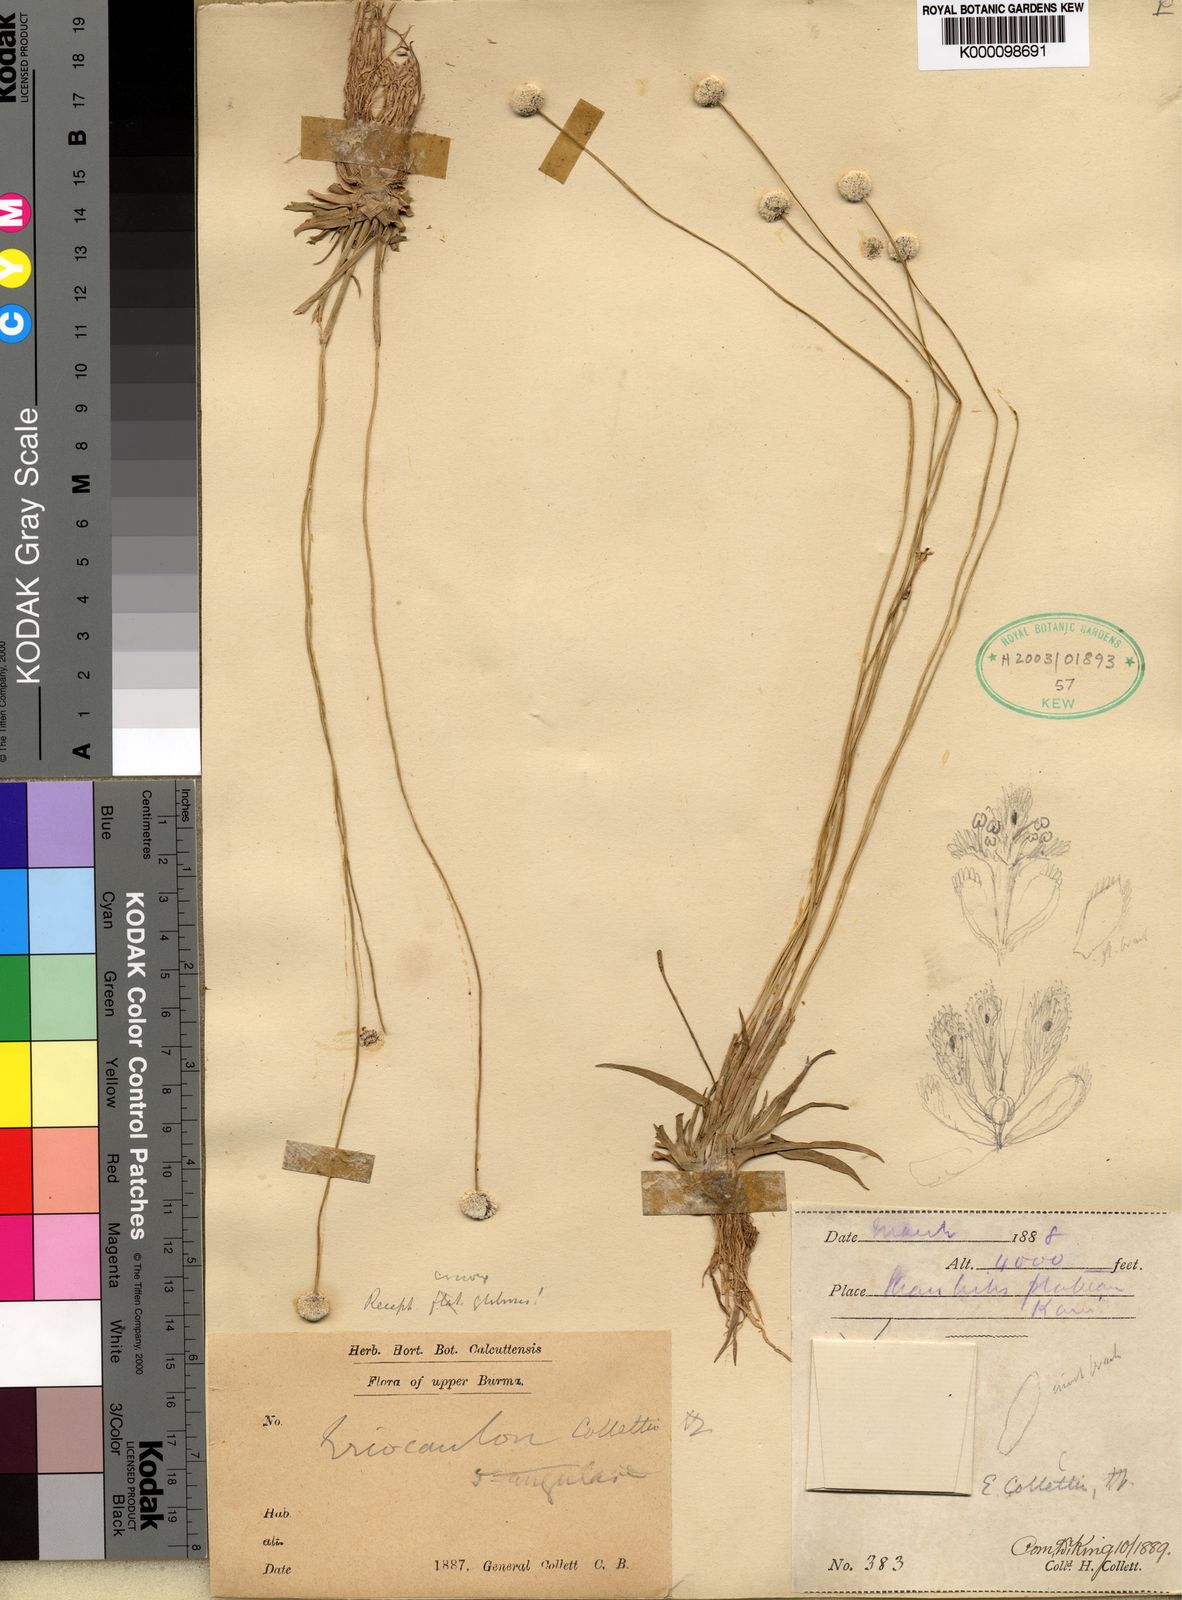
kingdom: Plantae
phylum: Tracheophyta
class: Liliopsida
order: Poales
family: Eriocaulaceae
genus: Eriocaulon
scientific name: Eriocaulon collettii
